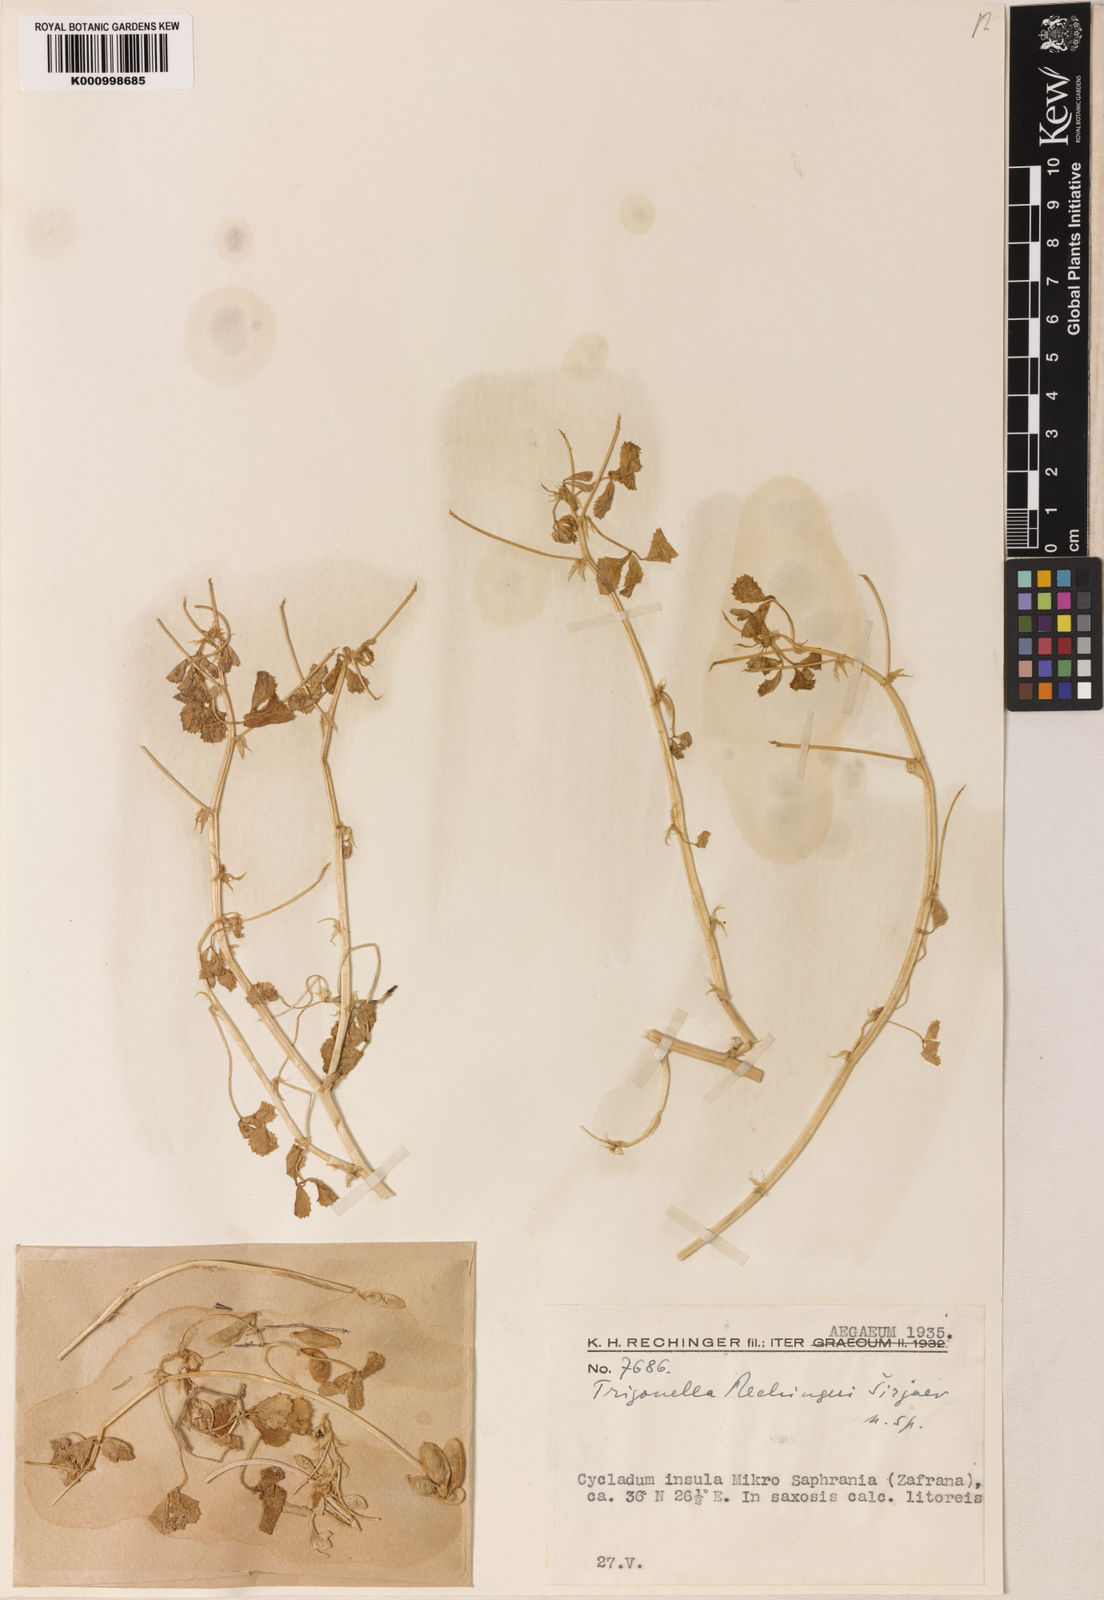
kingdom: Plantae
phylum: Tracheophyta
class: Magnoliopsida
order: Fabales
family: Fabaceae
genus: Trigonella
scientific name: Trigonella
